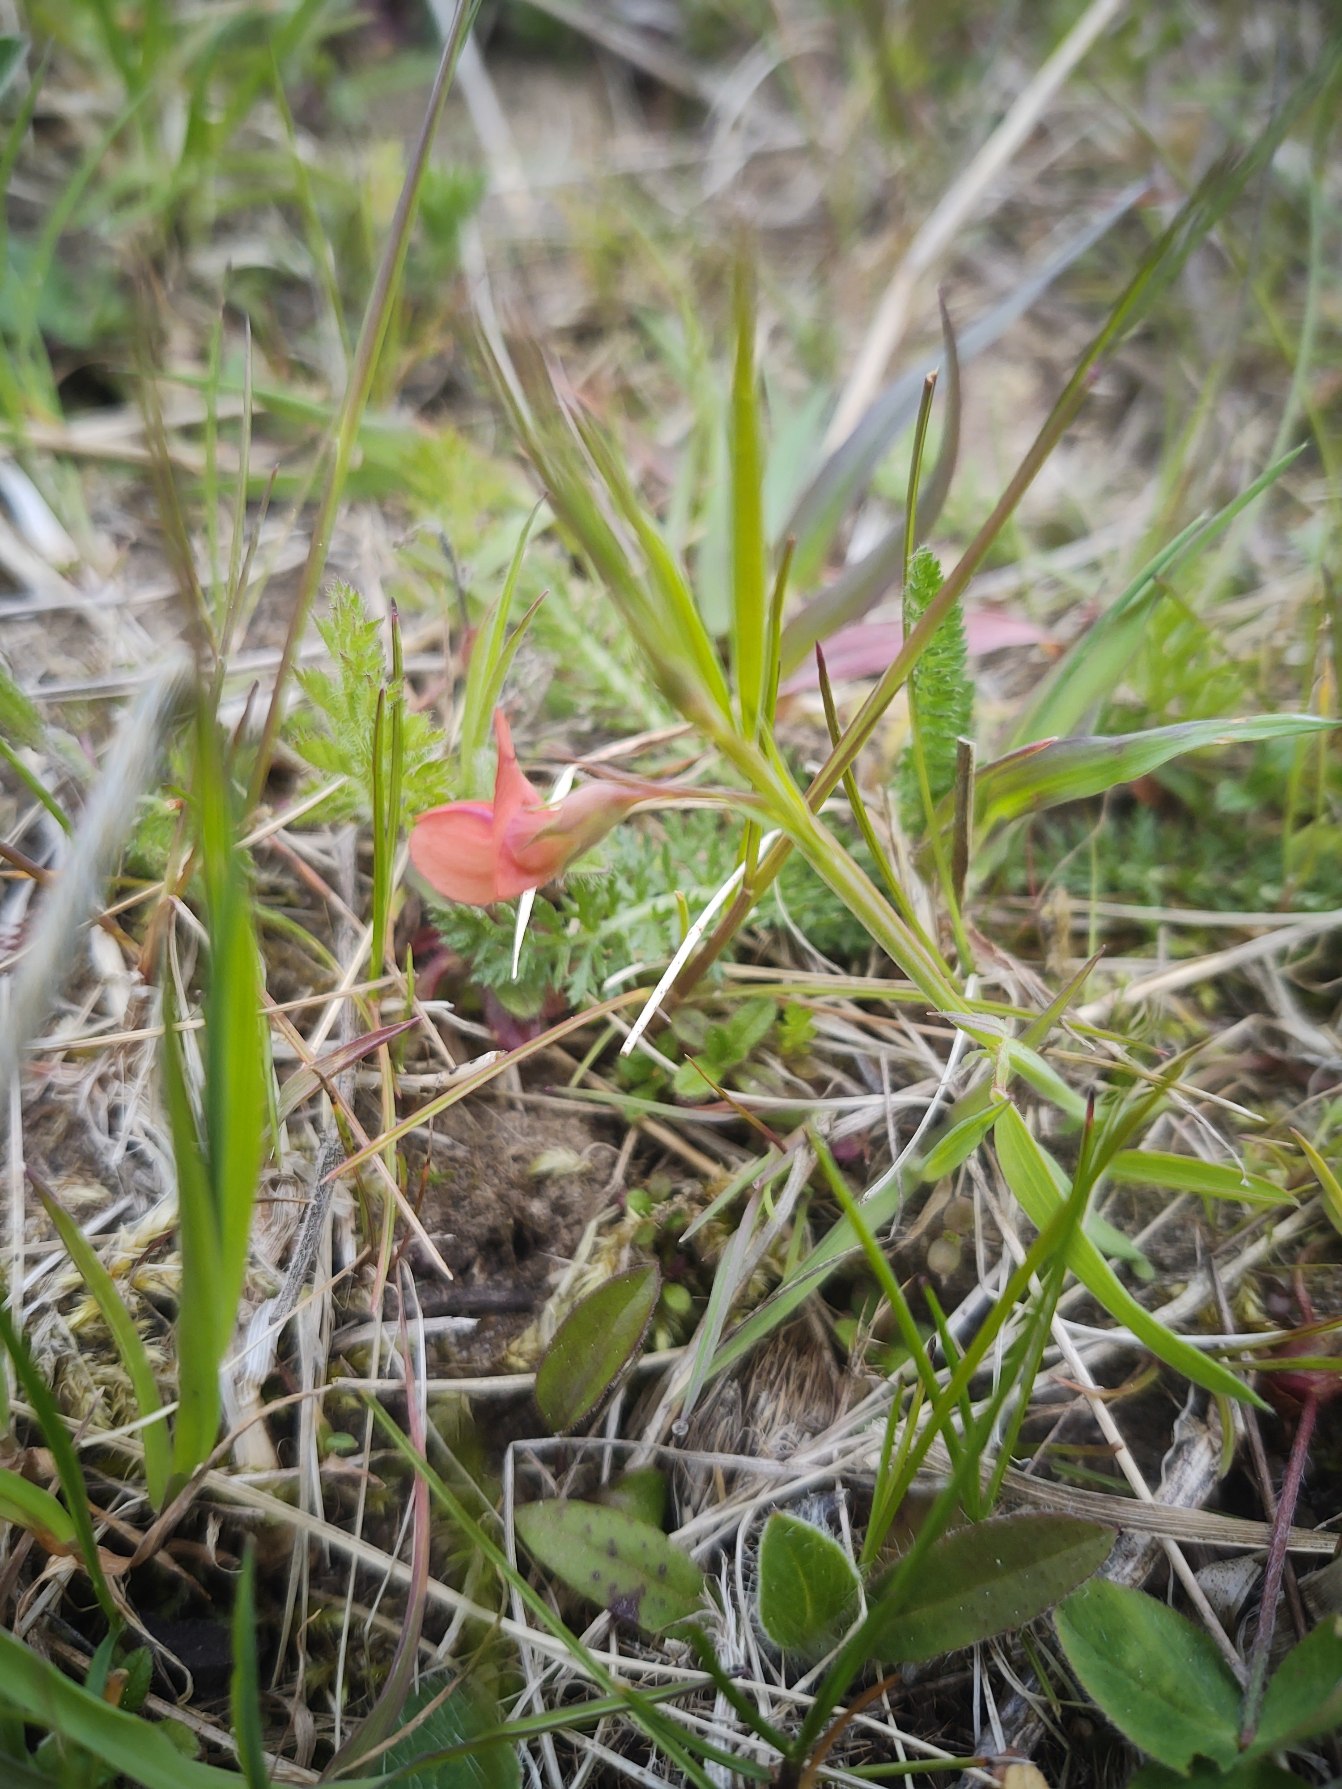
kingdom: Plantae
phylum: Tracheophyta
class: Magnoliopsida
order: Fabales
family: Fabaceae
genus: Lathyrus
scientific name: Lathyrus sphaericus
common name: Enblomstret fladbælg
